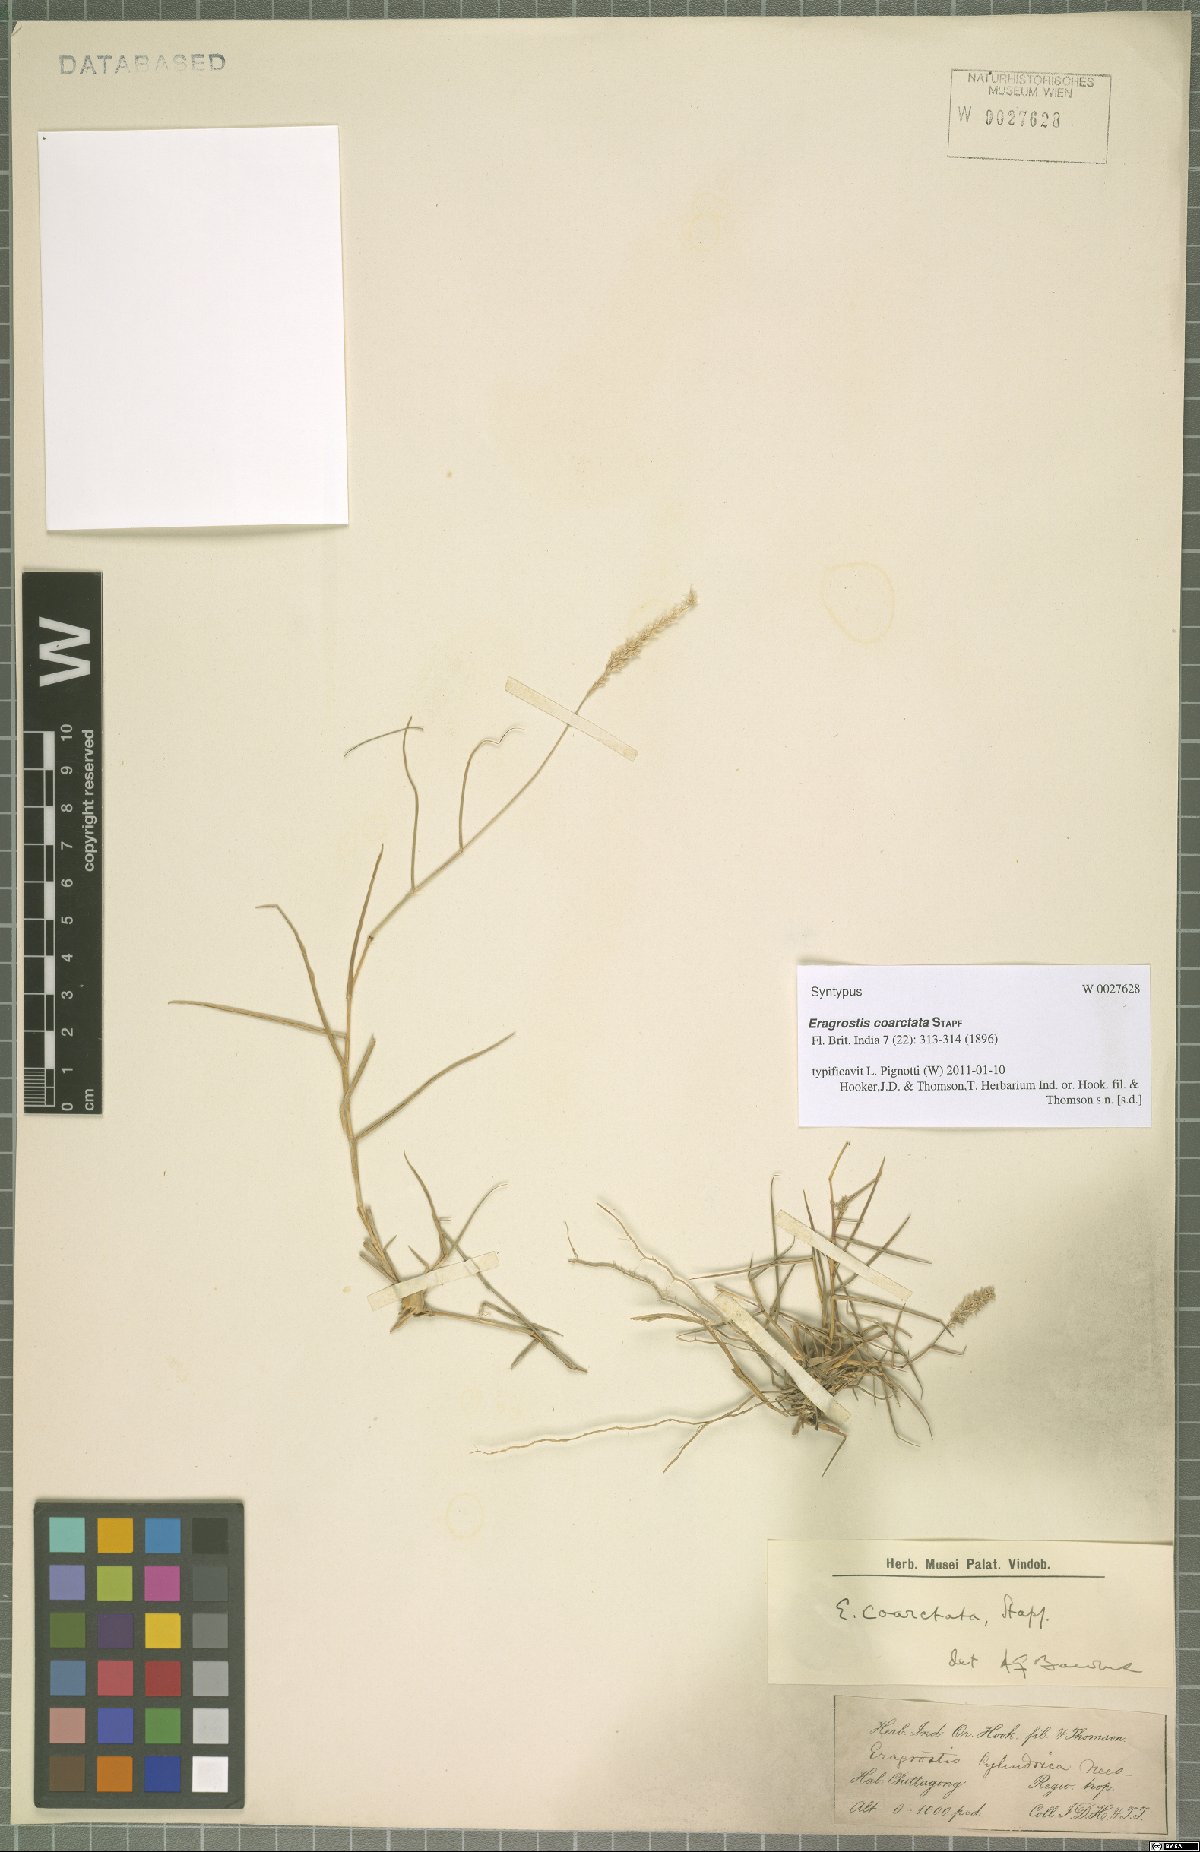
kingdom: Plantae
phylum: Tracheophyta
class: Liliopsida
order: Poales
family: Poaceae
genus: Eragrostis
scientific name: Eragrostis coarctata
